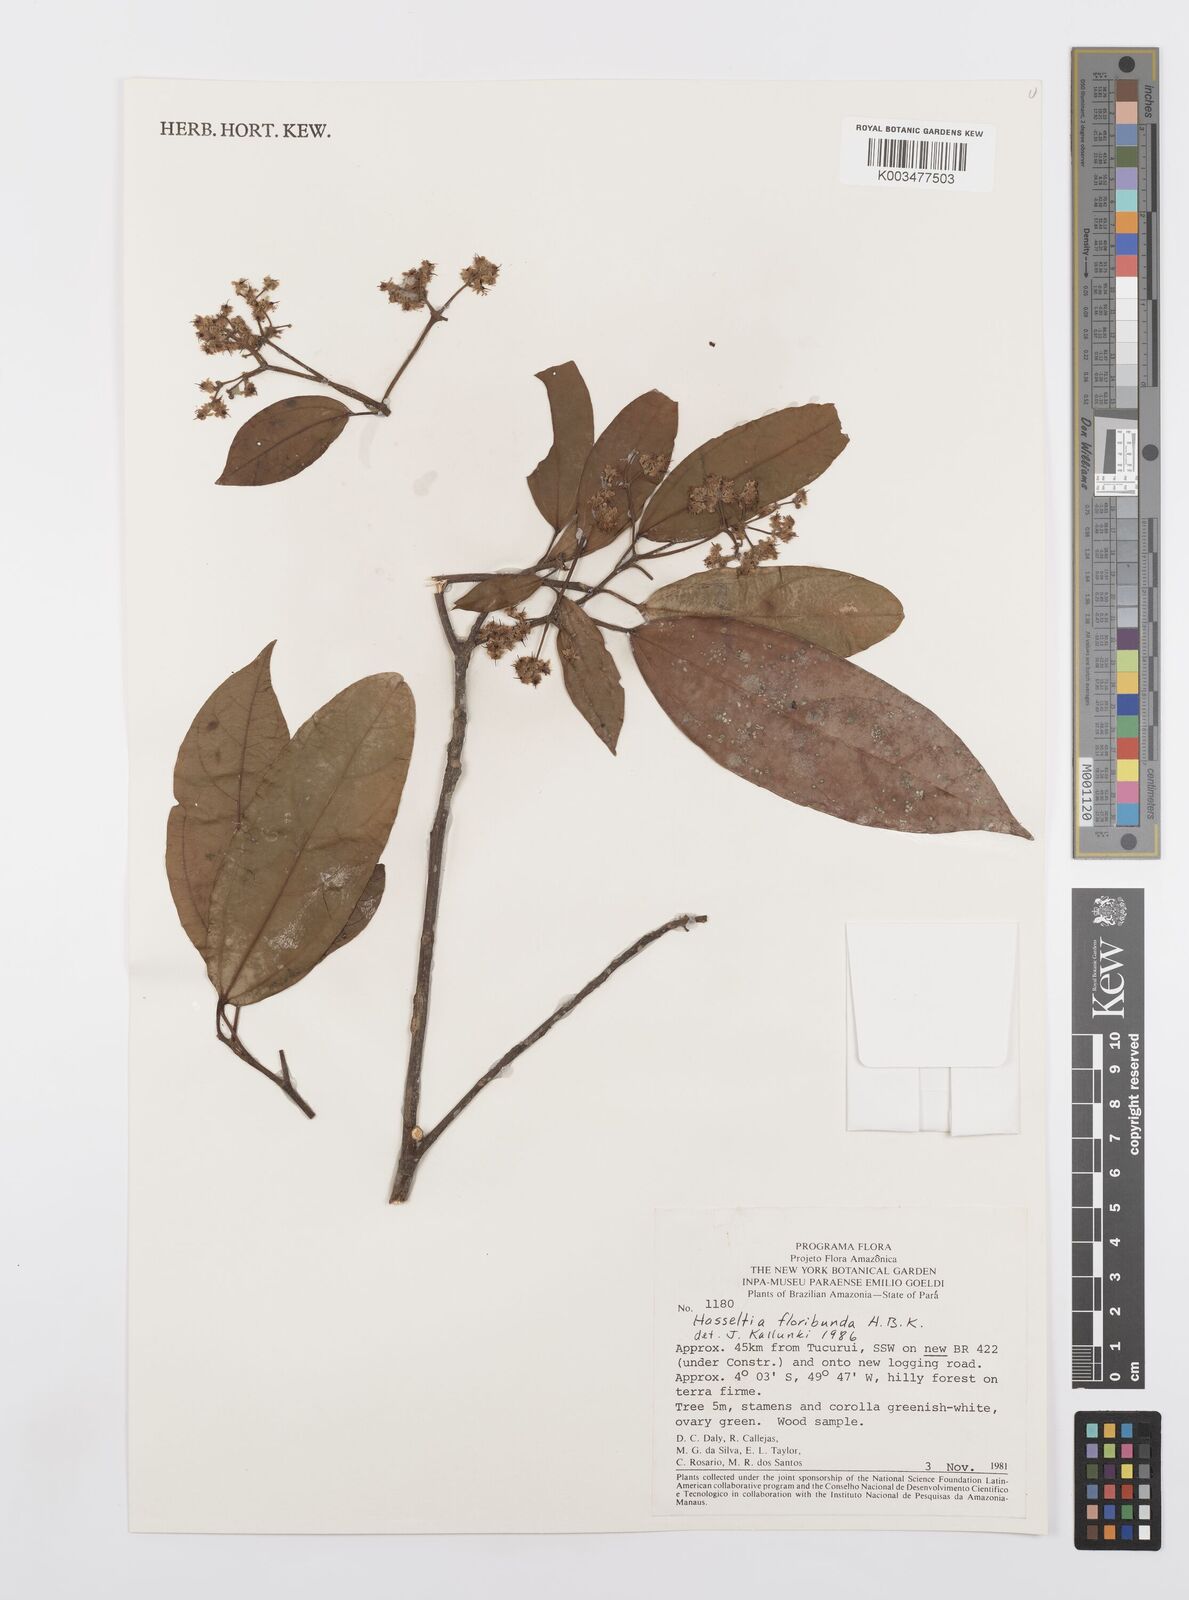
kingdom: Plantae
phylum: Tracheophyta
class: Magnoliopsida
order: Malpighiales
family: Salicaceae
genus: Hasseltia
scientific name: Hasseltia floribunda
